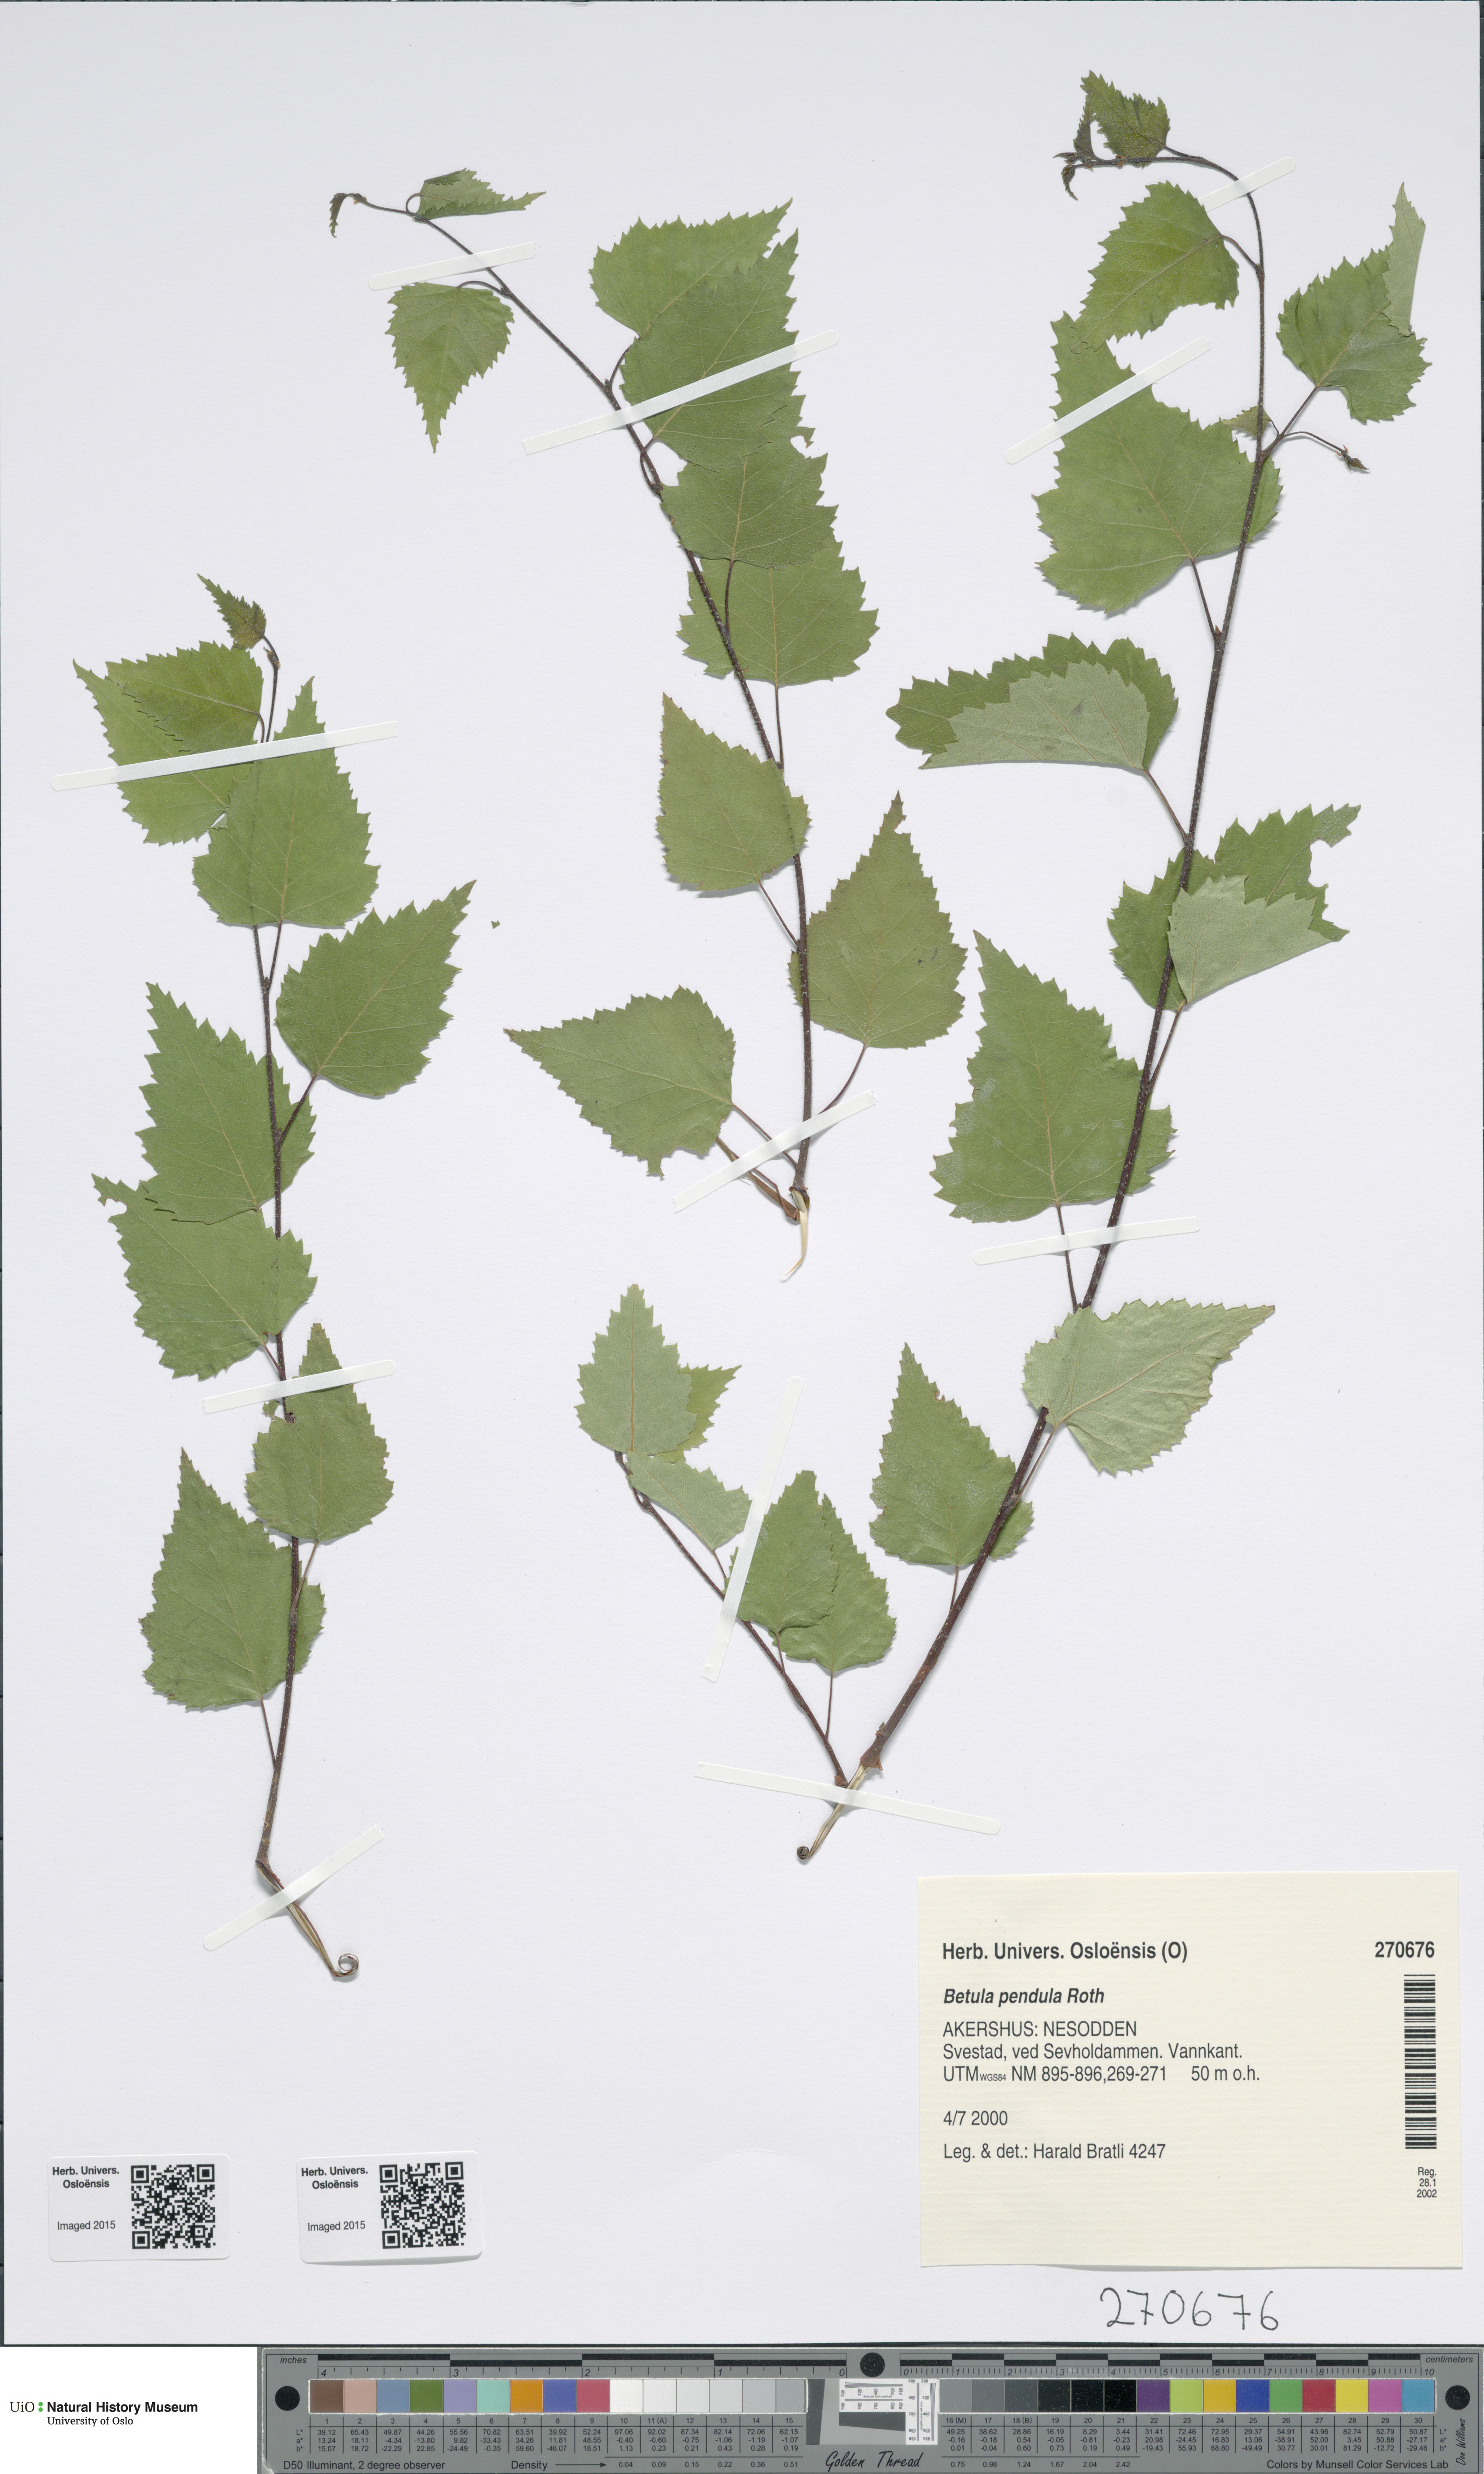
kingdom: Plantae
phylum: Tracheophyta
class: Magnoliopsida
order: Fagales
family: Betulaceae
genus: Betula
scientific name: Betula pendula
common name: Silver birch
